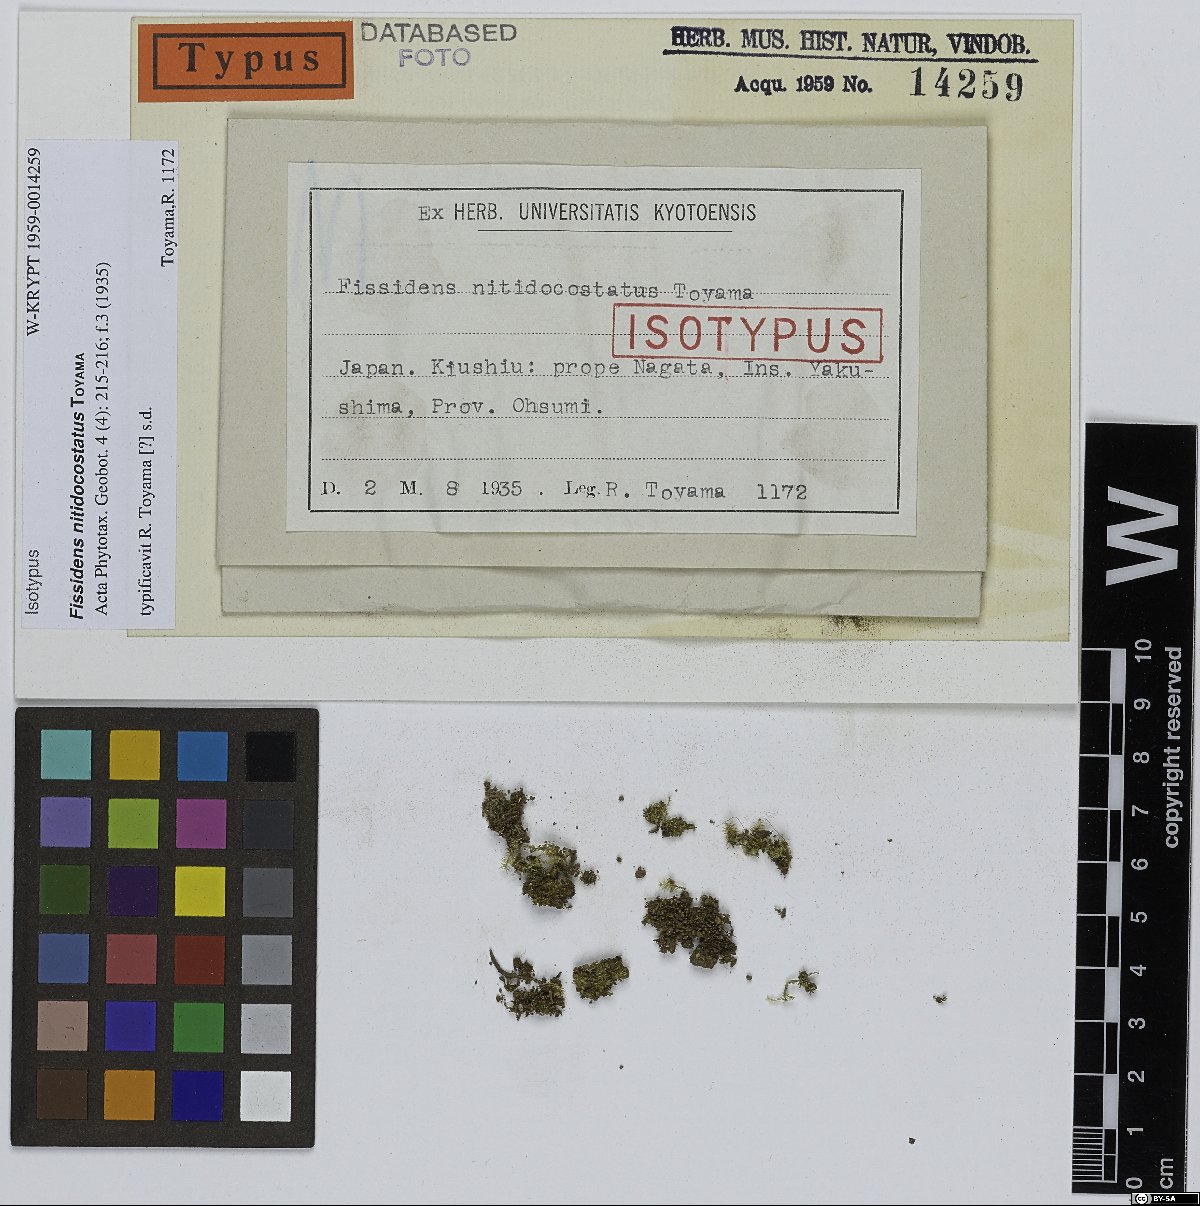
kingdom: Plantae
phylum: Bryophyta
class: Bryopsida
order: Dicranales
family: Fissidentaceae
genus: Fissidens
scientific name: Fissidens linearis
